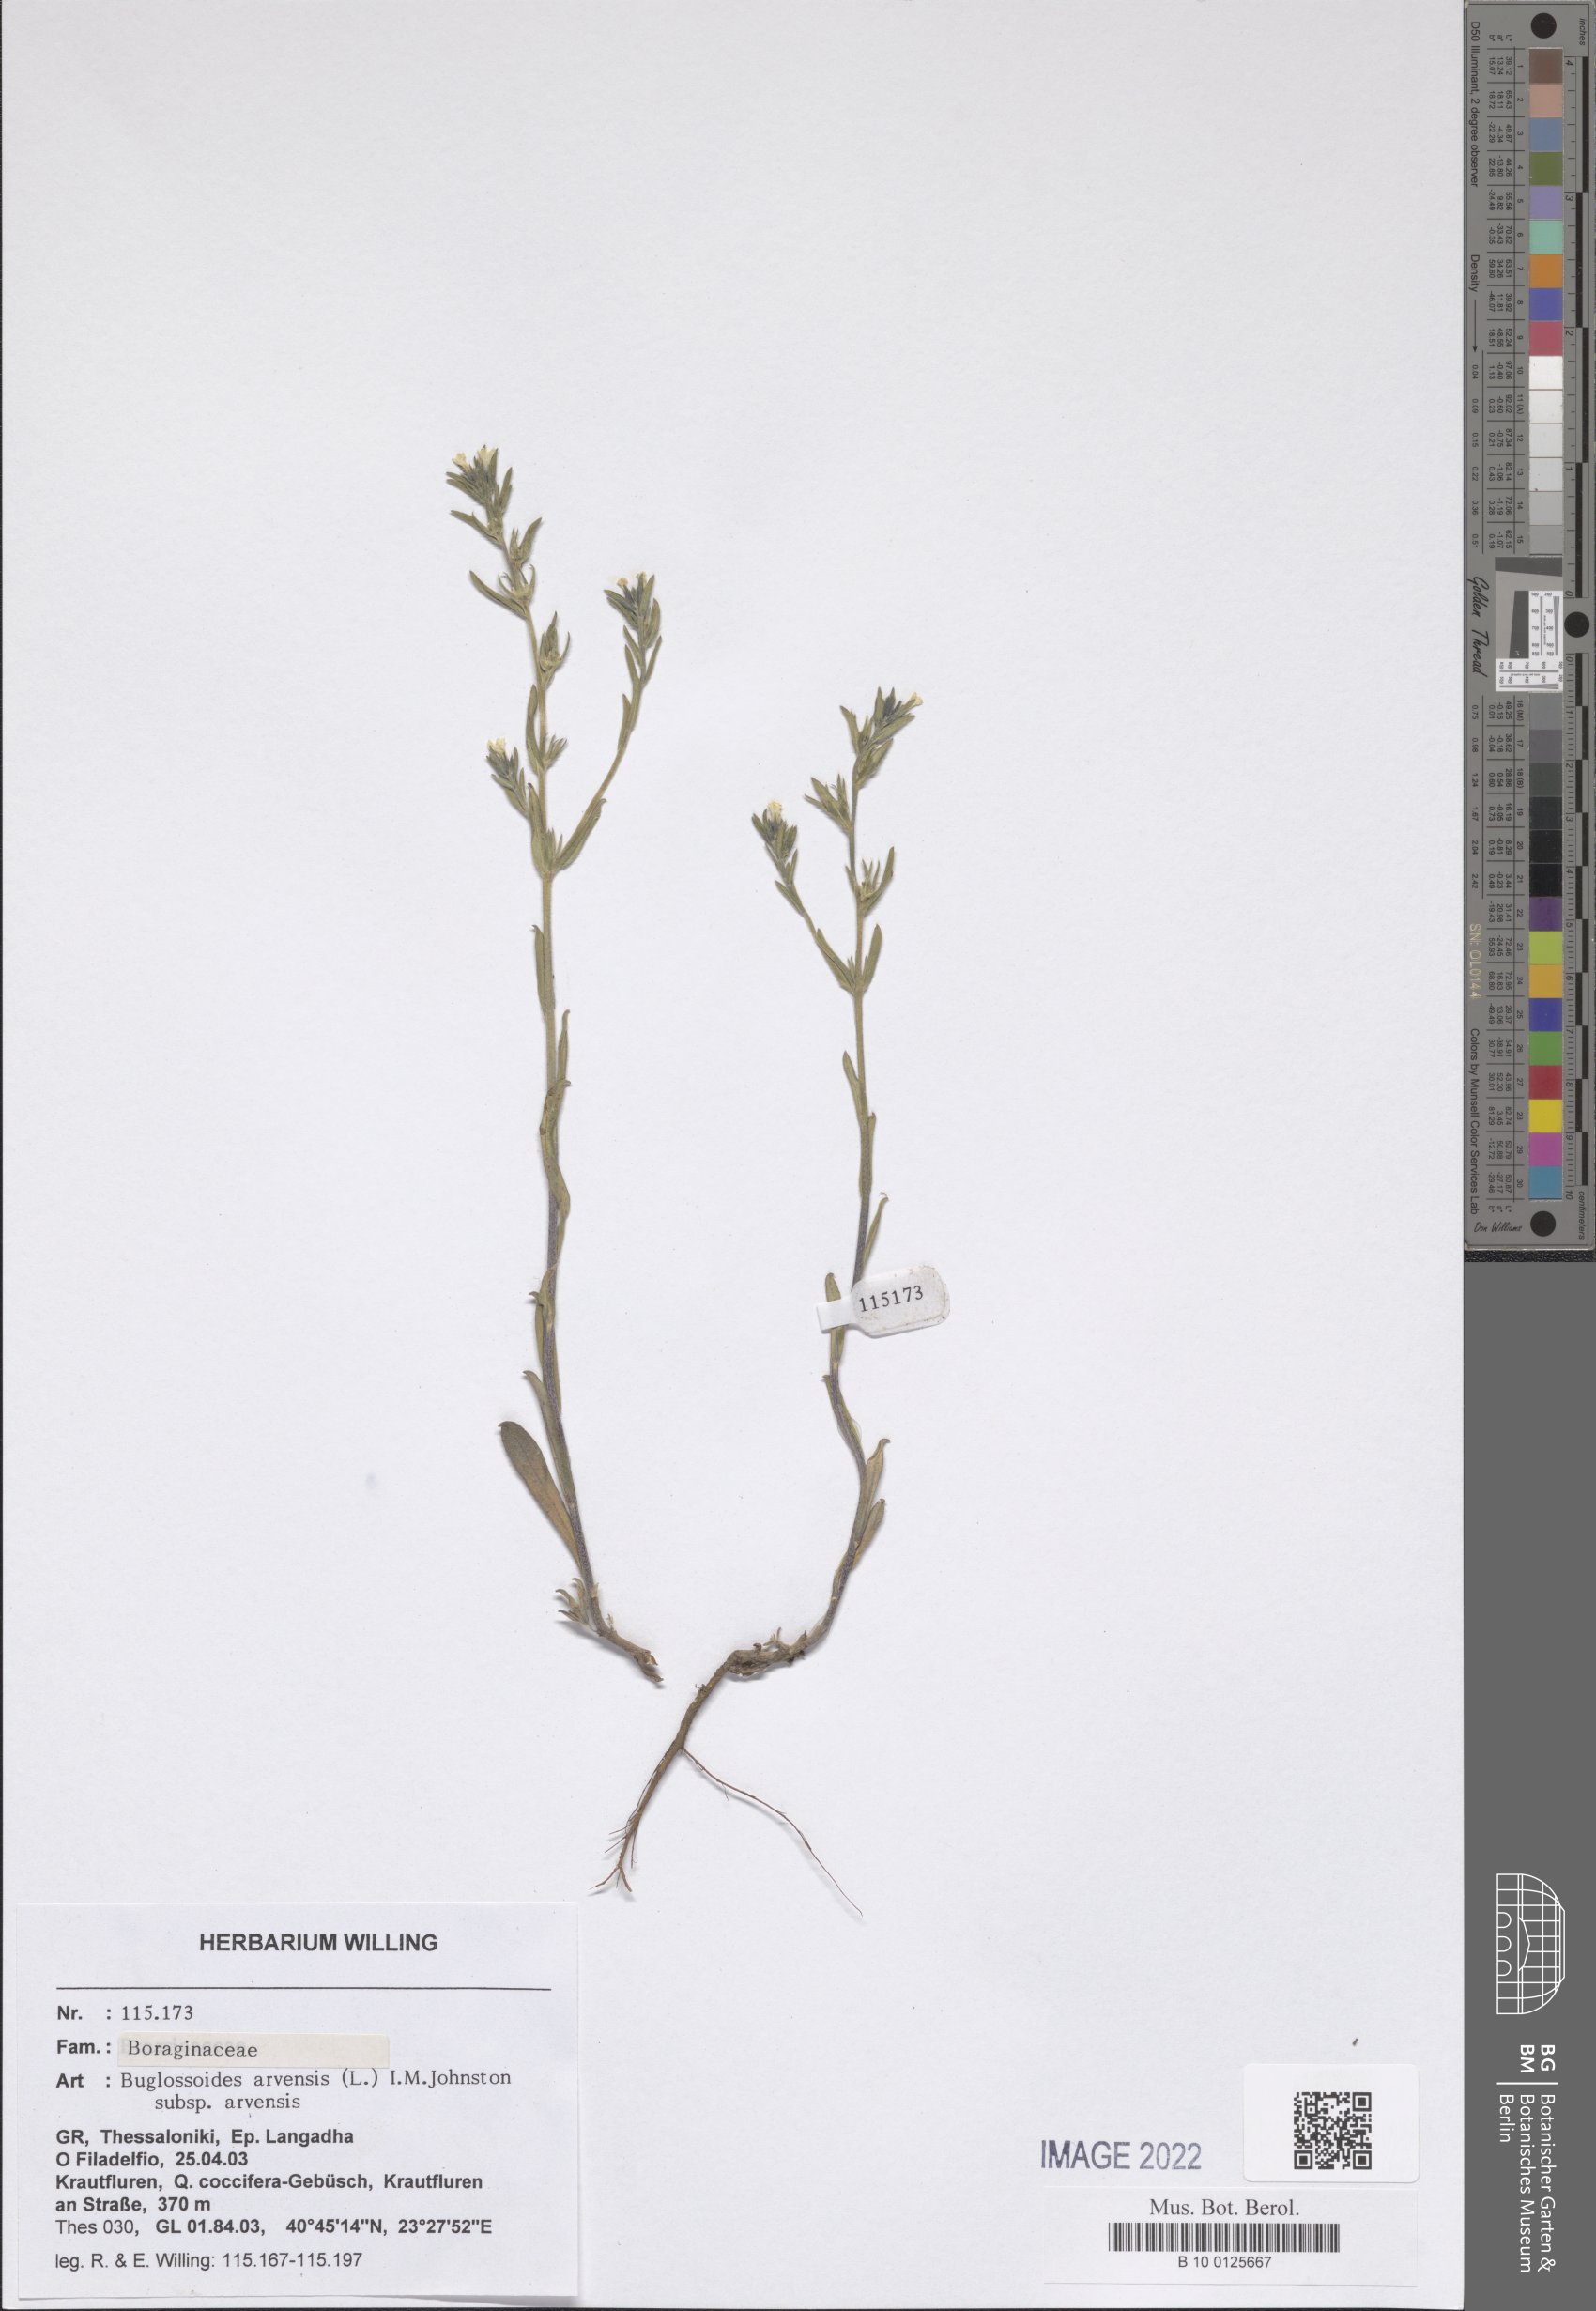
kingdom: Plantae
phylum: Tracheophyta
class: Magnoliopsida
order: Boraginales
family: Boraginaceae
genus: Buglossoides
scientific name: Buglossoides arvensis
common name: Corn gromwell
